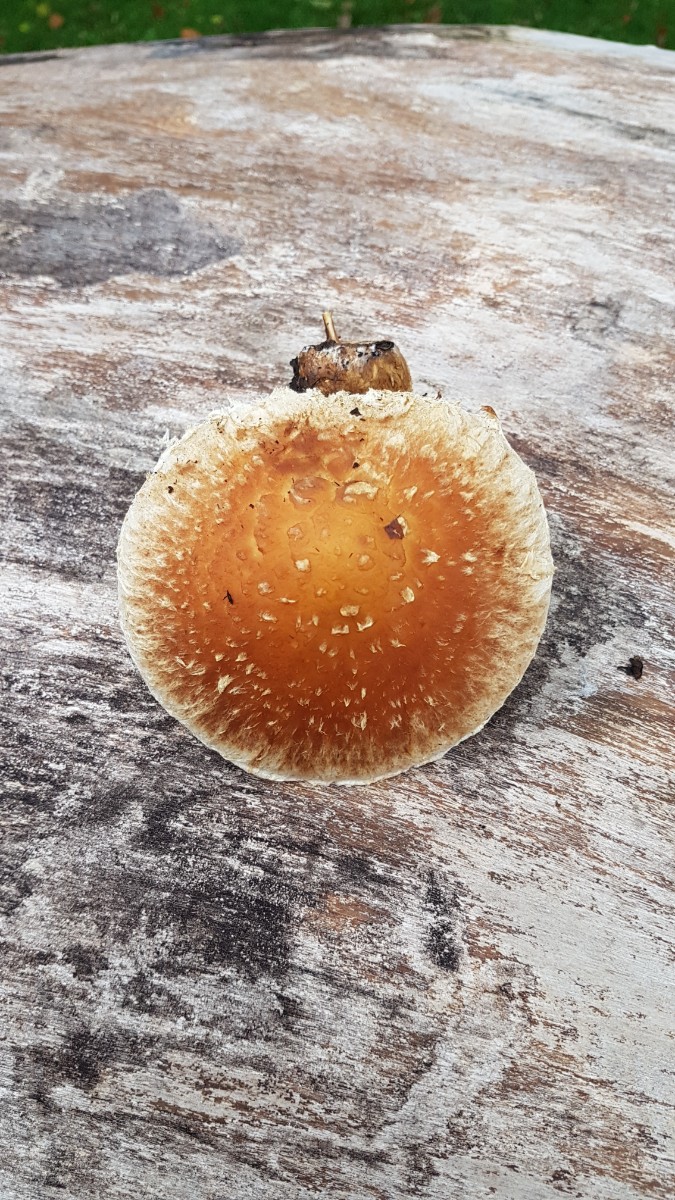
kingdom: Fungi
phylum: Basidiomycota
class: Agaricomycetes
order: Agaricales
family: Strophariaceae
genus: Pholiota
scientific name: Pholiota populnea
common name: poppel-kæmpeskælhat
